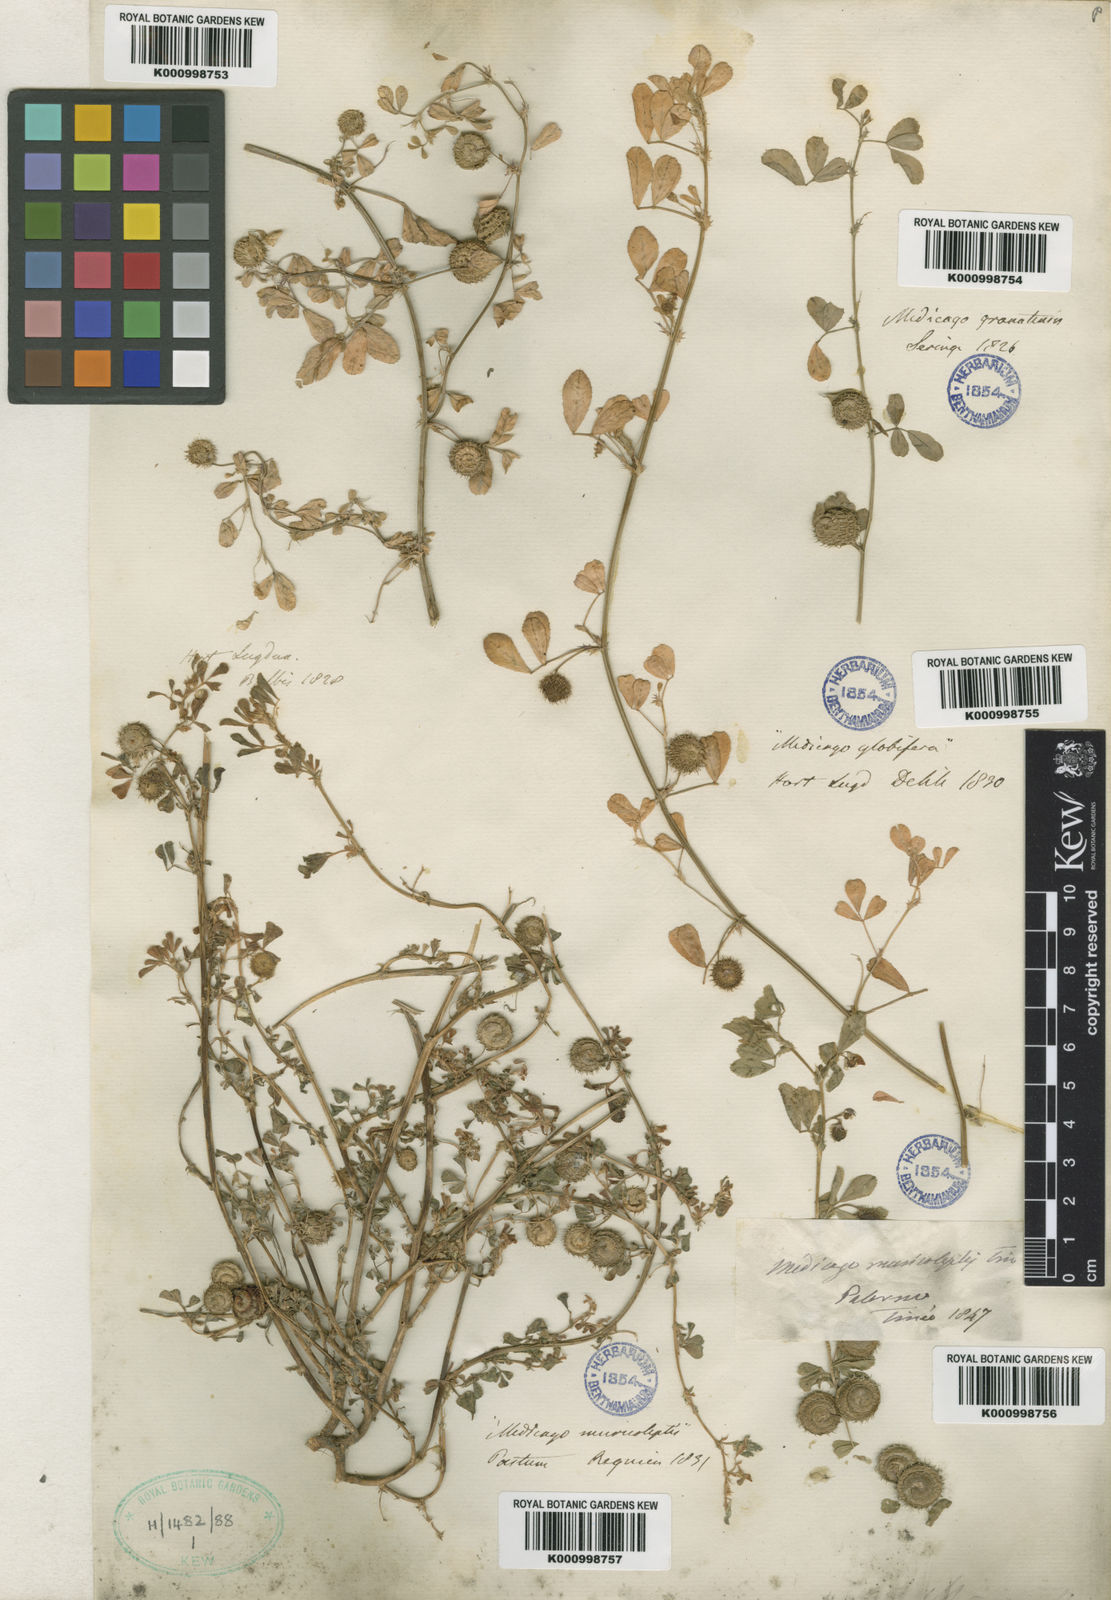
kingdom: Plantae
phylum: Tracheophyta
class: Magnoliopsida
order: Fabales
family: Fabaceae
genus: Medicago
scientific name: Medicago muricoleptis
